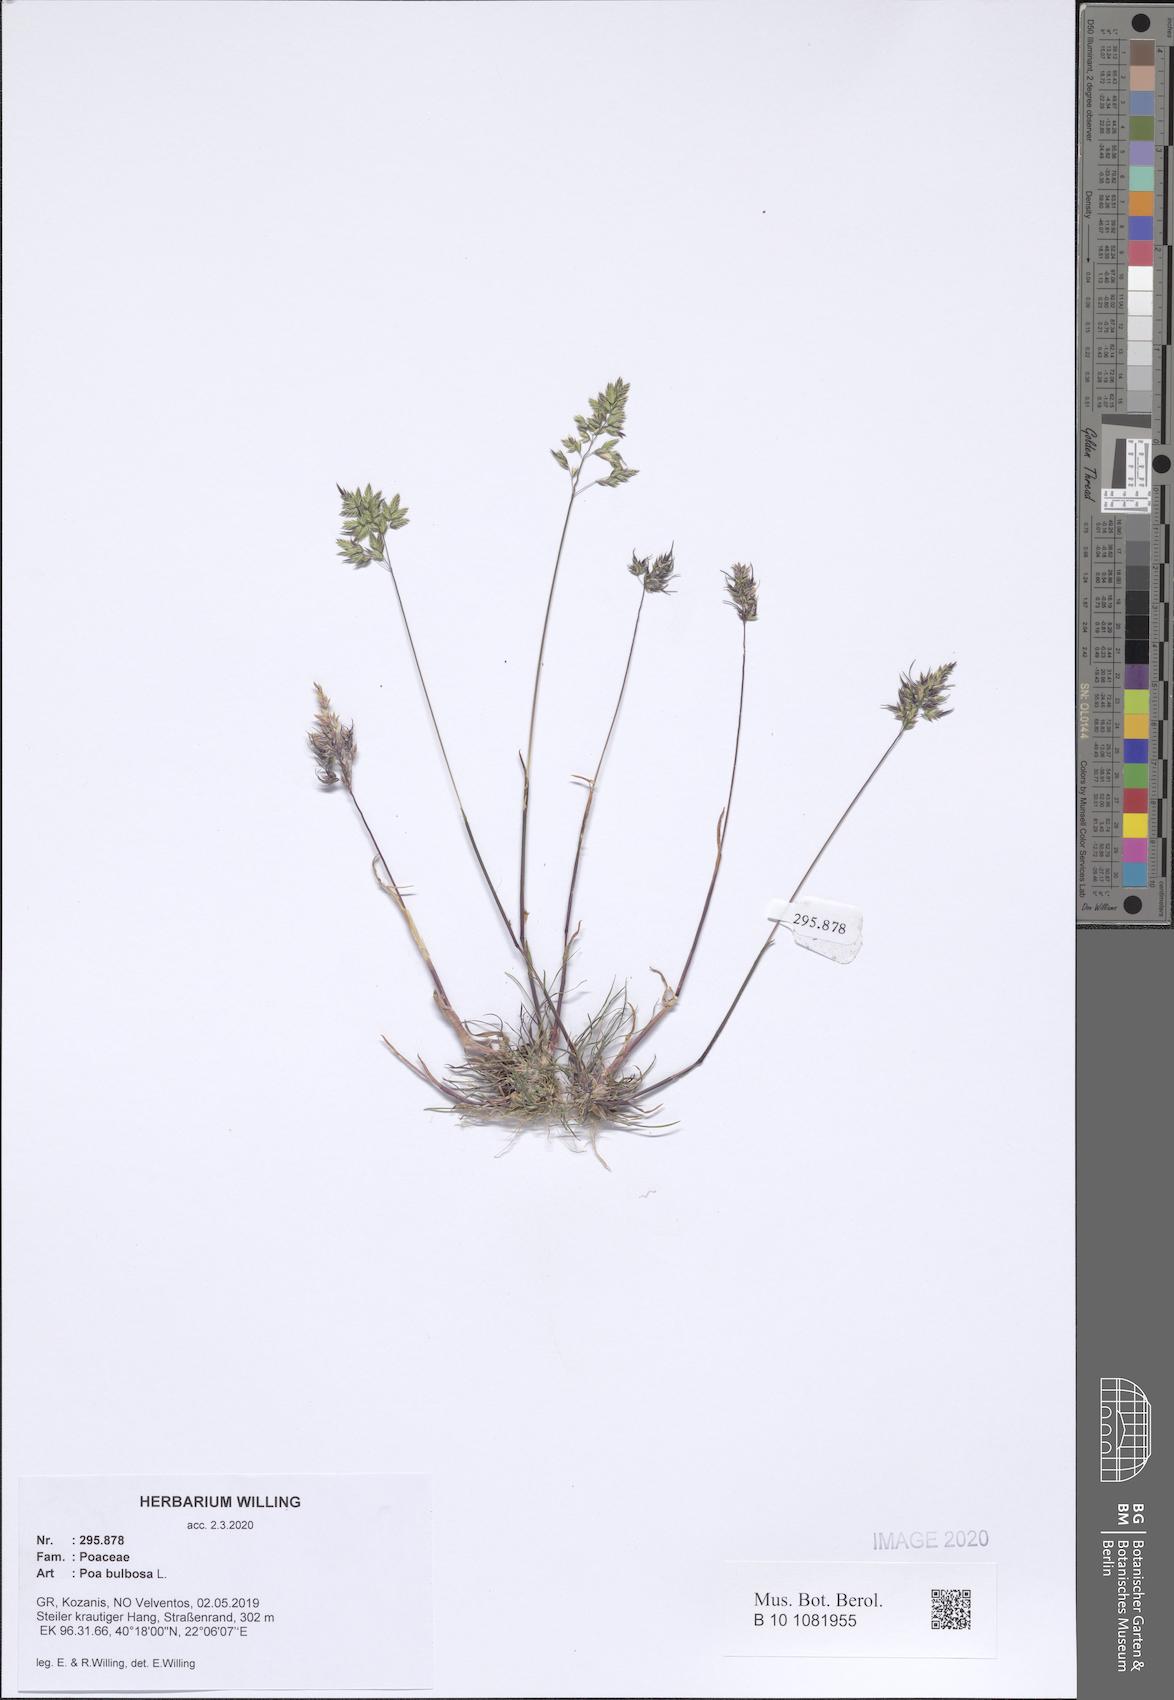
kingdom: Plantae
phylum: Tracheophyta
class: Liliopsida
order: Poales
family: Poaceae
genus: Poa
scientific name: Poa bulbosa
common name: Bulbous bluegrass
